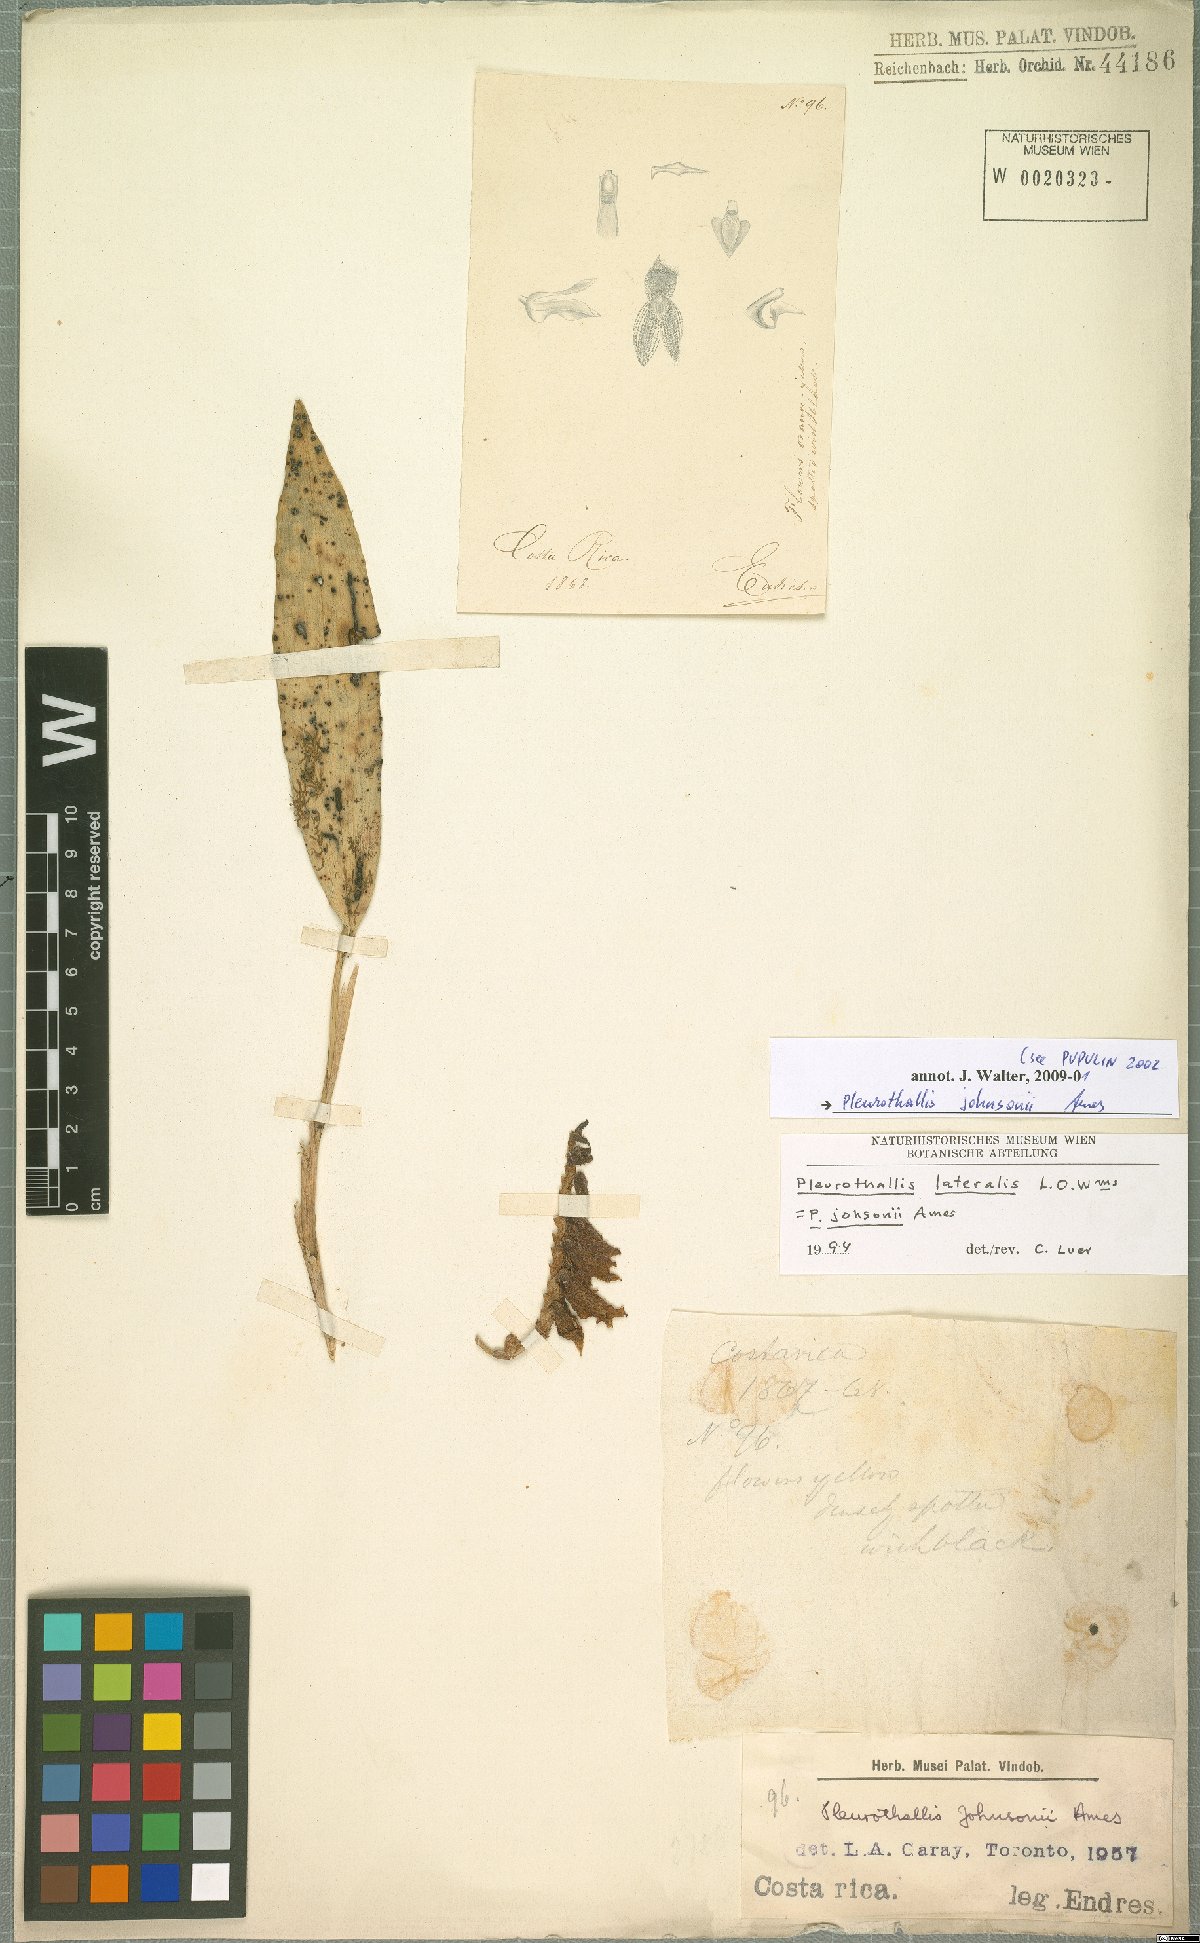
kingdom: Plantae
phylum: Tracheophyta
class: Liliopsida
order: Asparagales
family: Orchidaceae
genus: Acianthera
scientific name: Acianthera johnsonii
